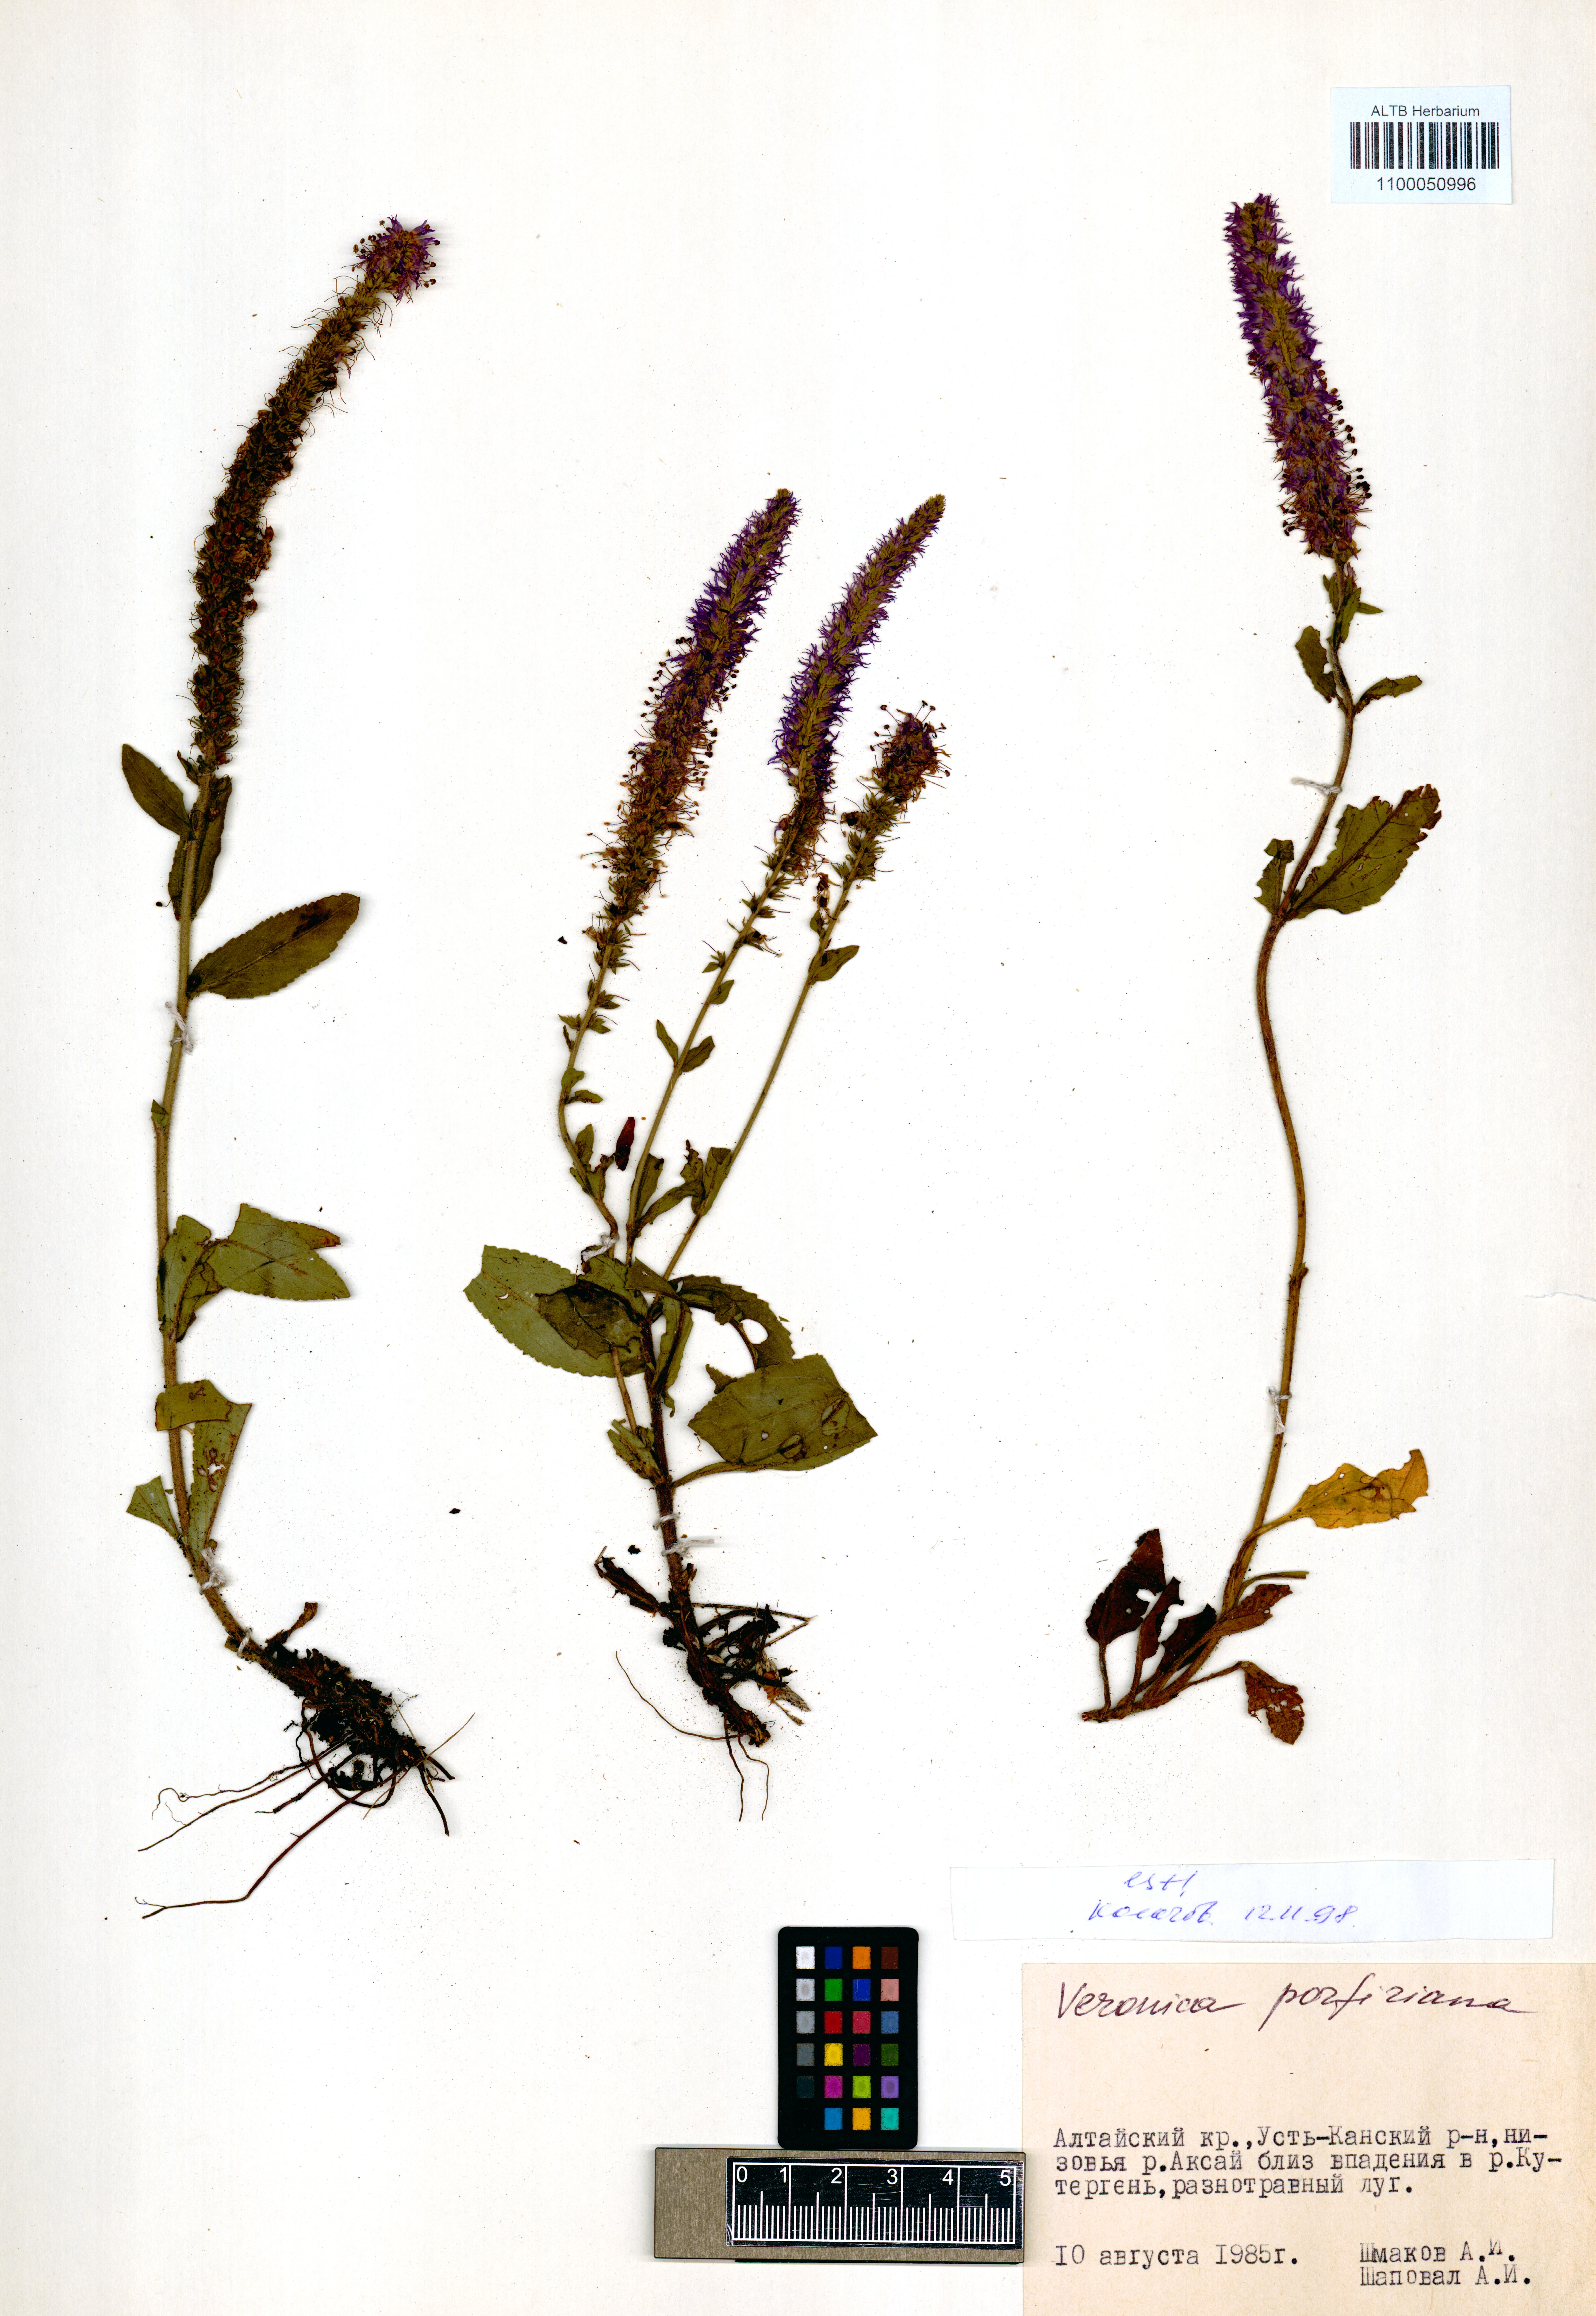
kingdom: Plantae
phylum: Tracheophyta
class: Magnoliopsida
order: Lamiales
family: Plantaginaceae
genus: Veronica
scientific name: Veronica porphyriana
